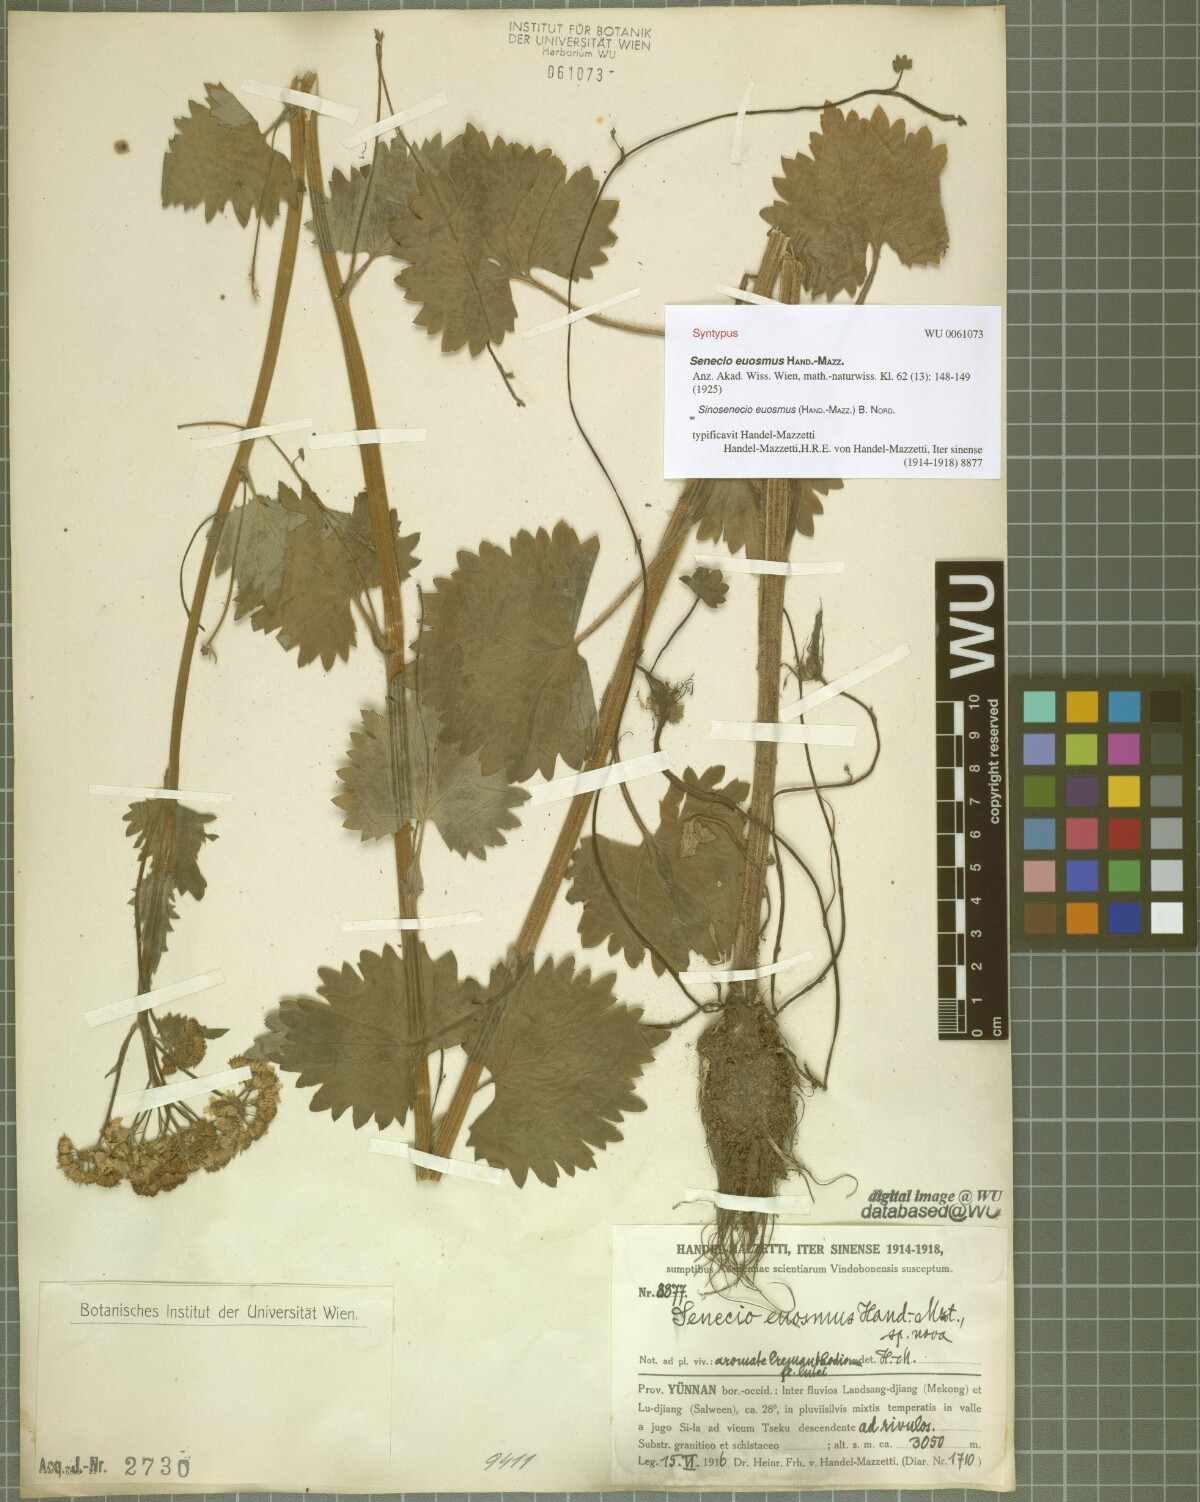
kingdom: Plantae
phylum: Tracheophyta
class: Magnoliopsida
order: Asterales
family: Asteraceae
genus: Sinosenecio
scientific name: Sinosenecio euosmus
